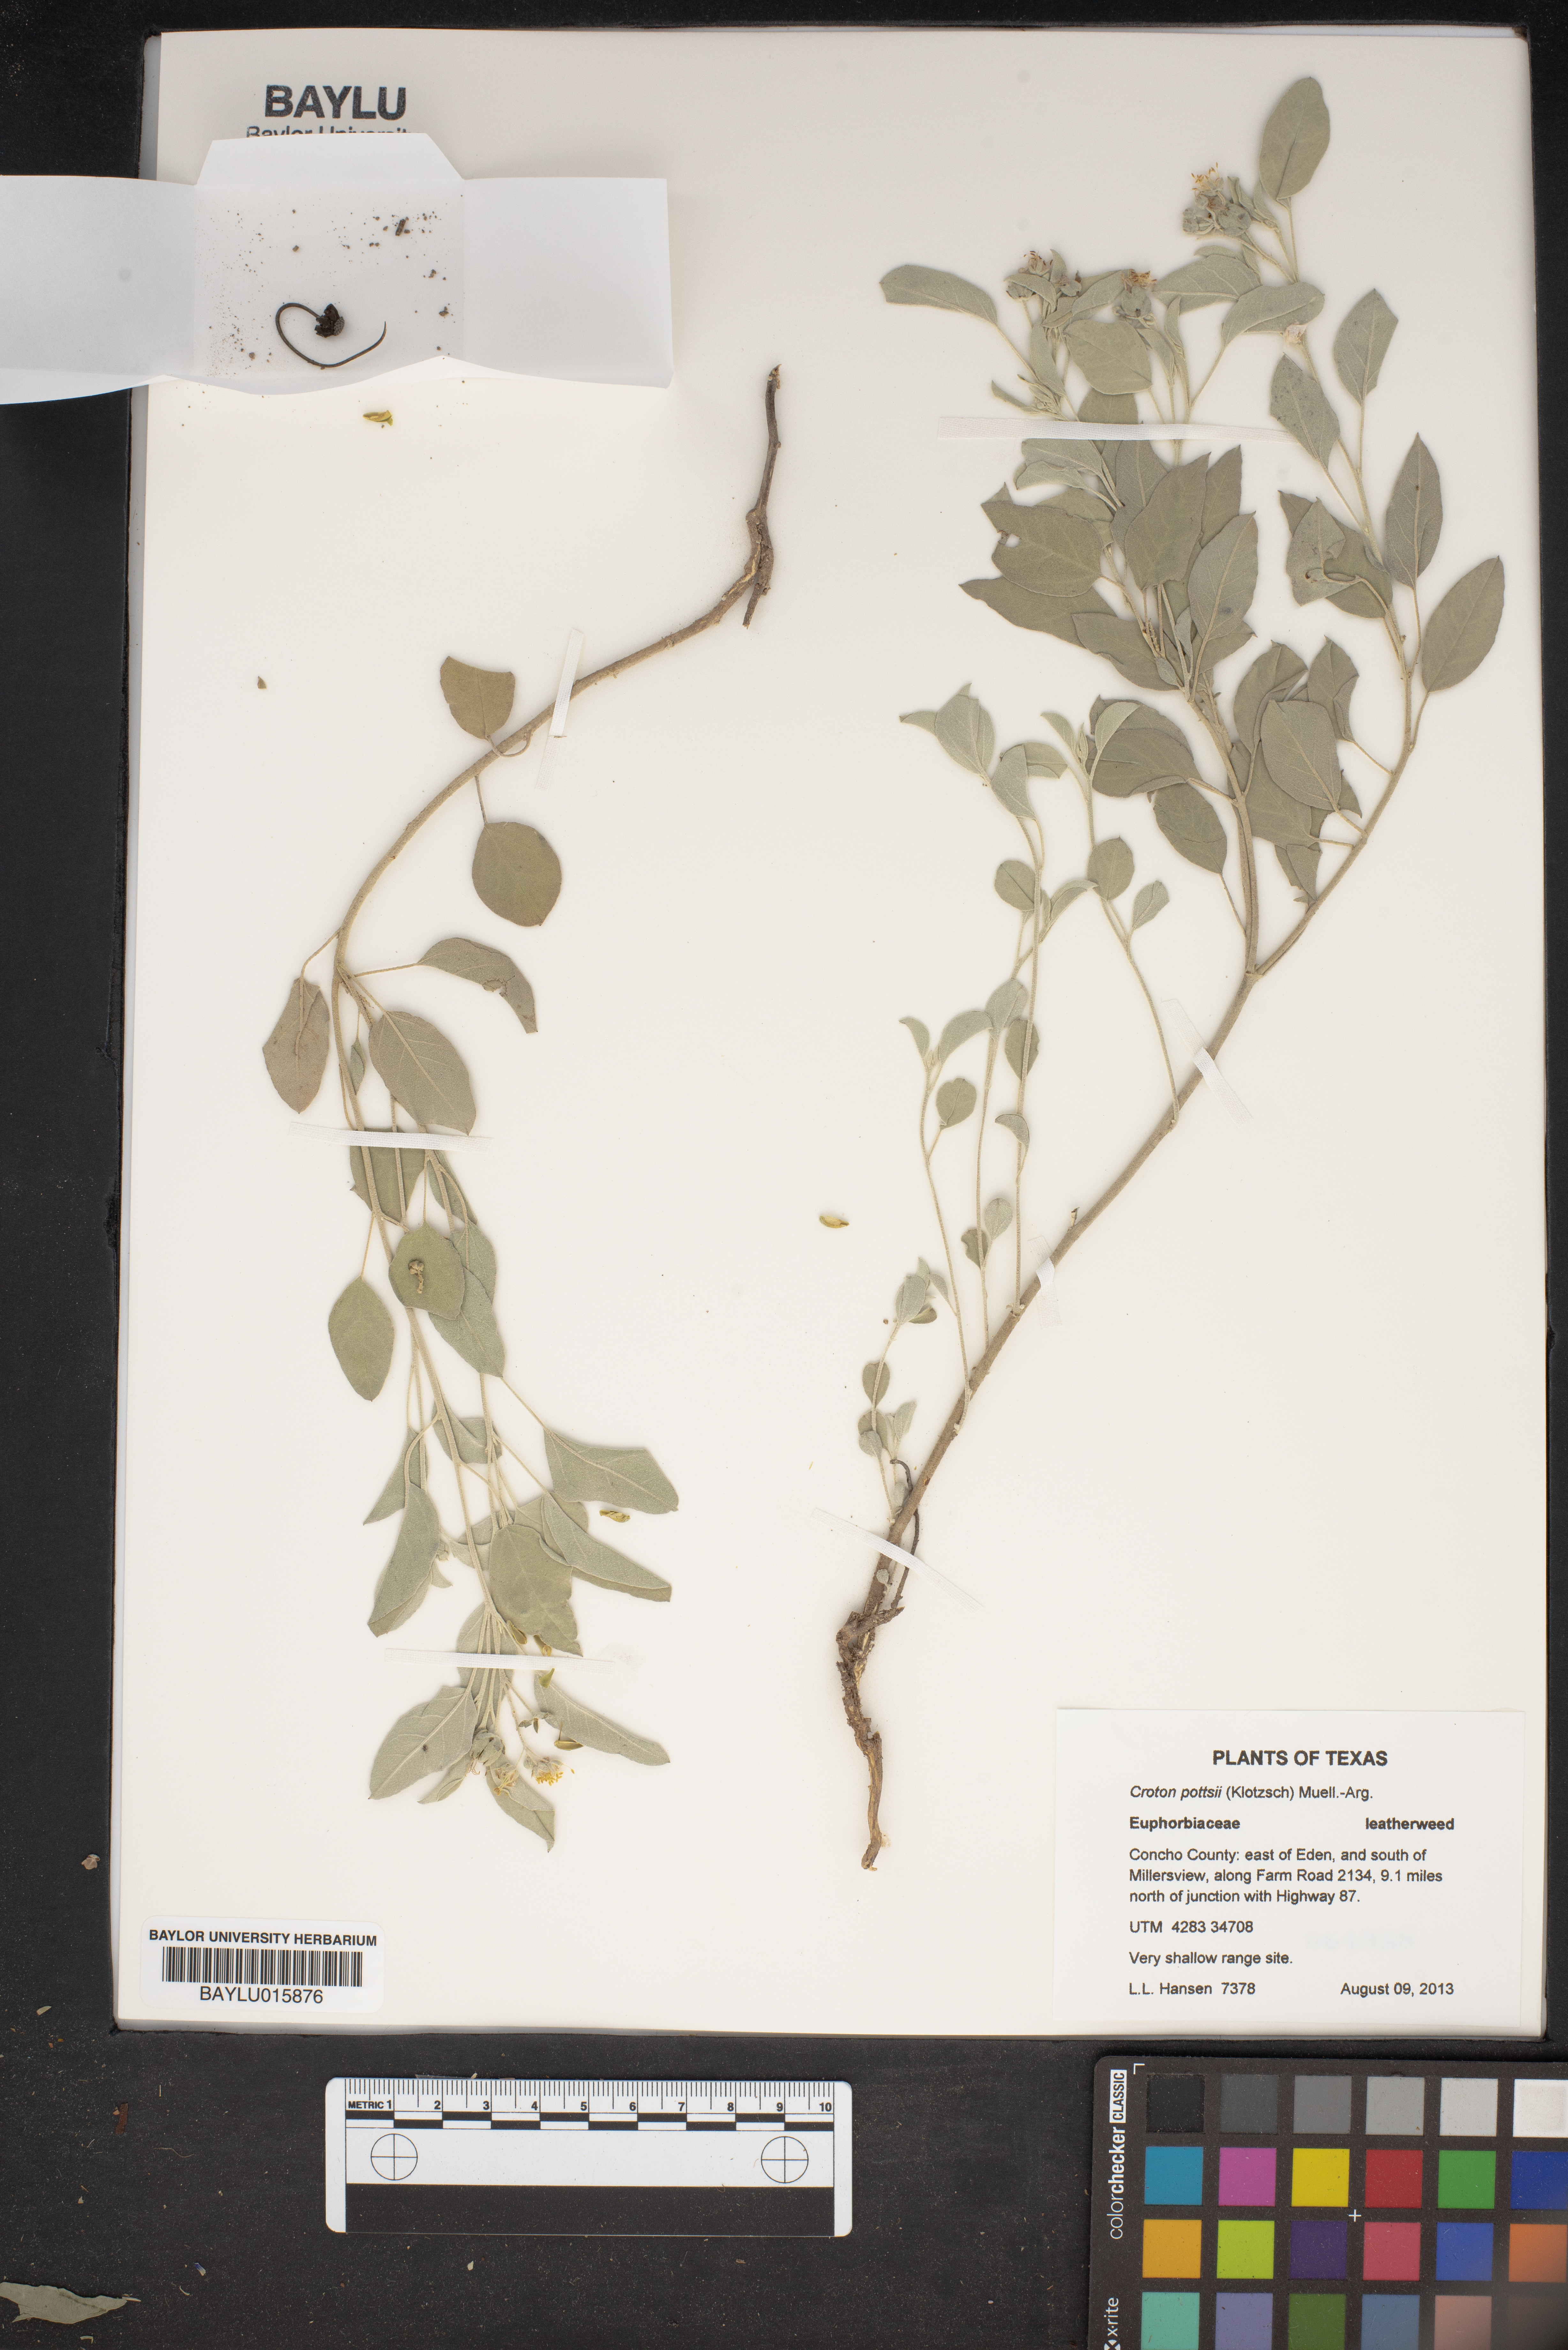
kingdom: Plantae
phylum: Tracheophyta
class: Magnoliopsida
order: Malpighiales
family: Euphorbiaceae
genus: Croton
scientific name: Croton pottsii
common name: Leatherweed
